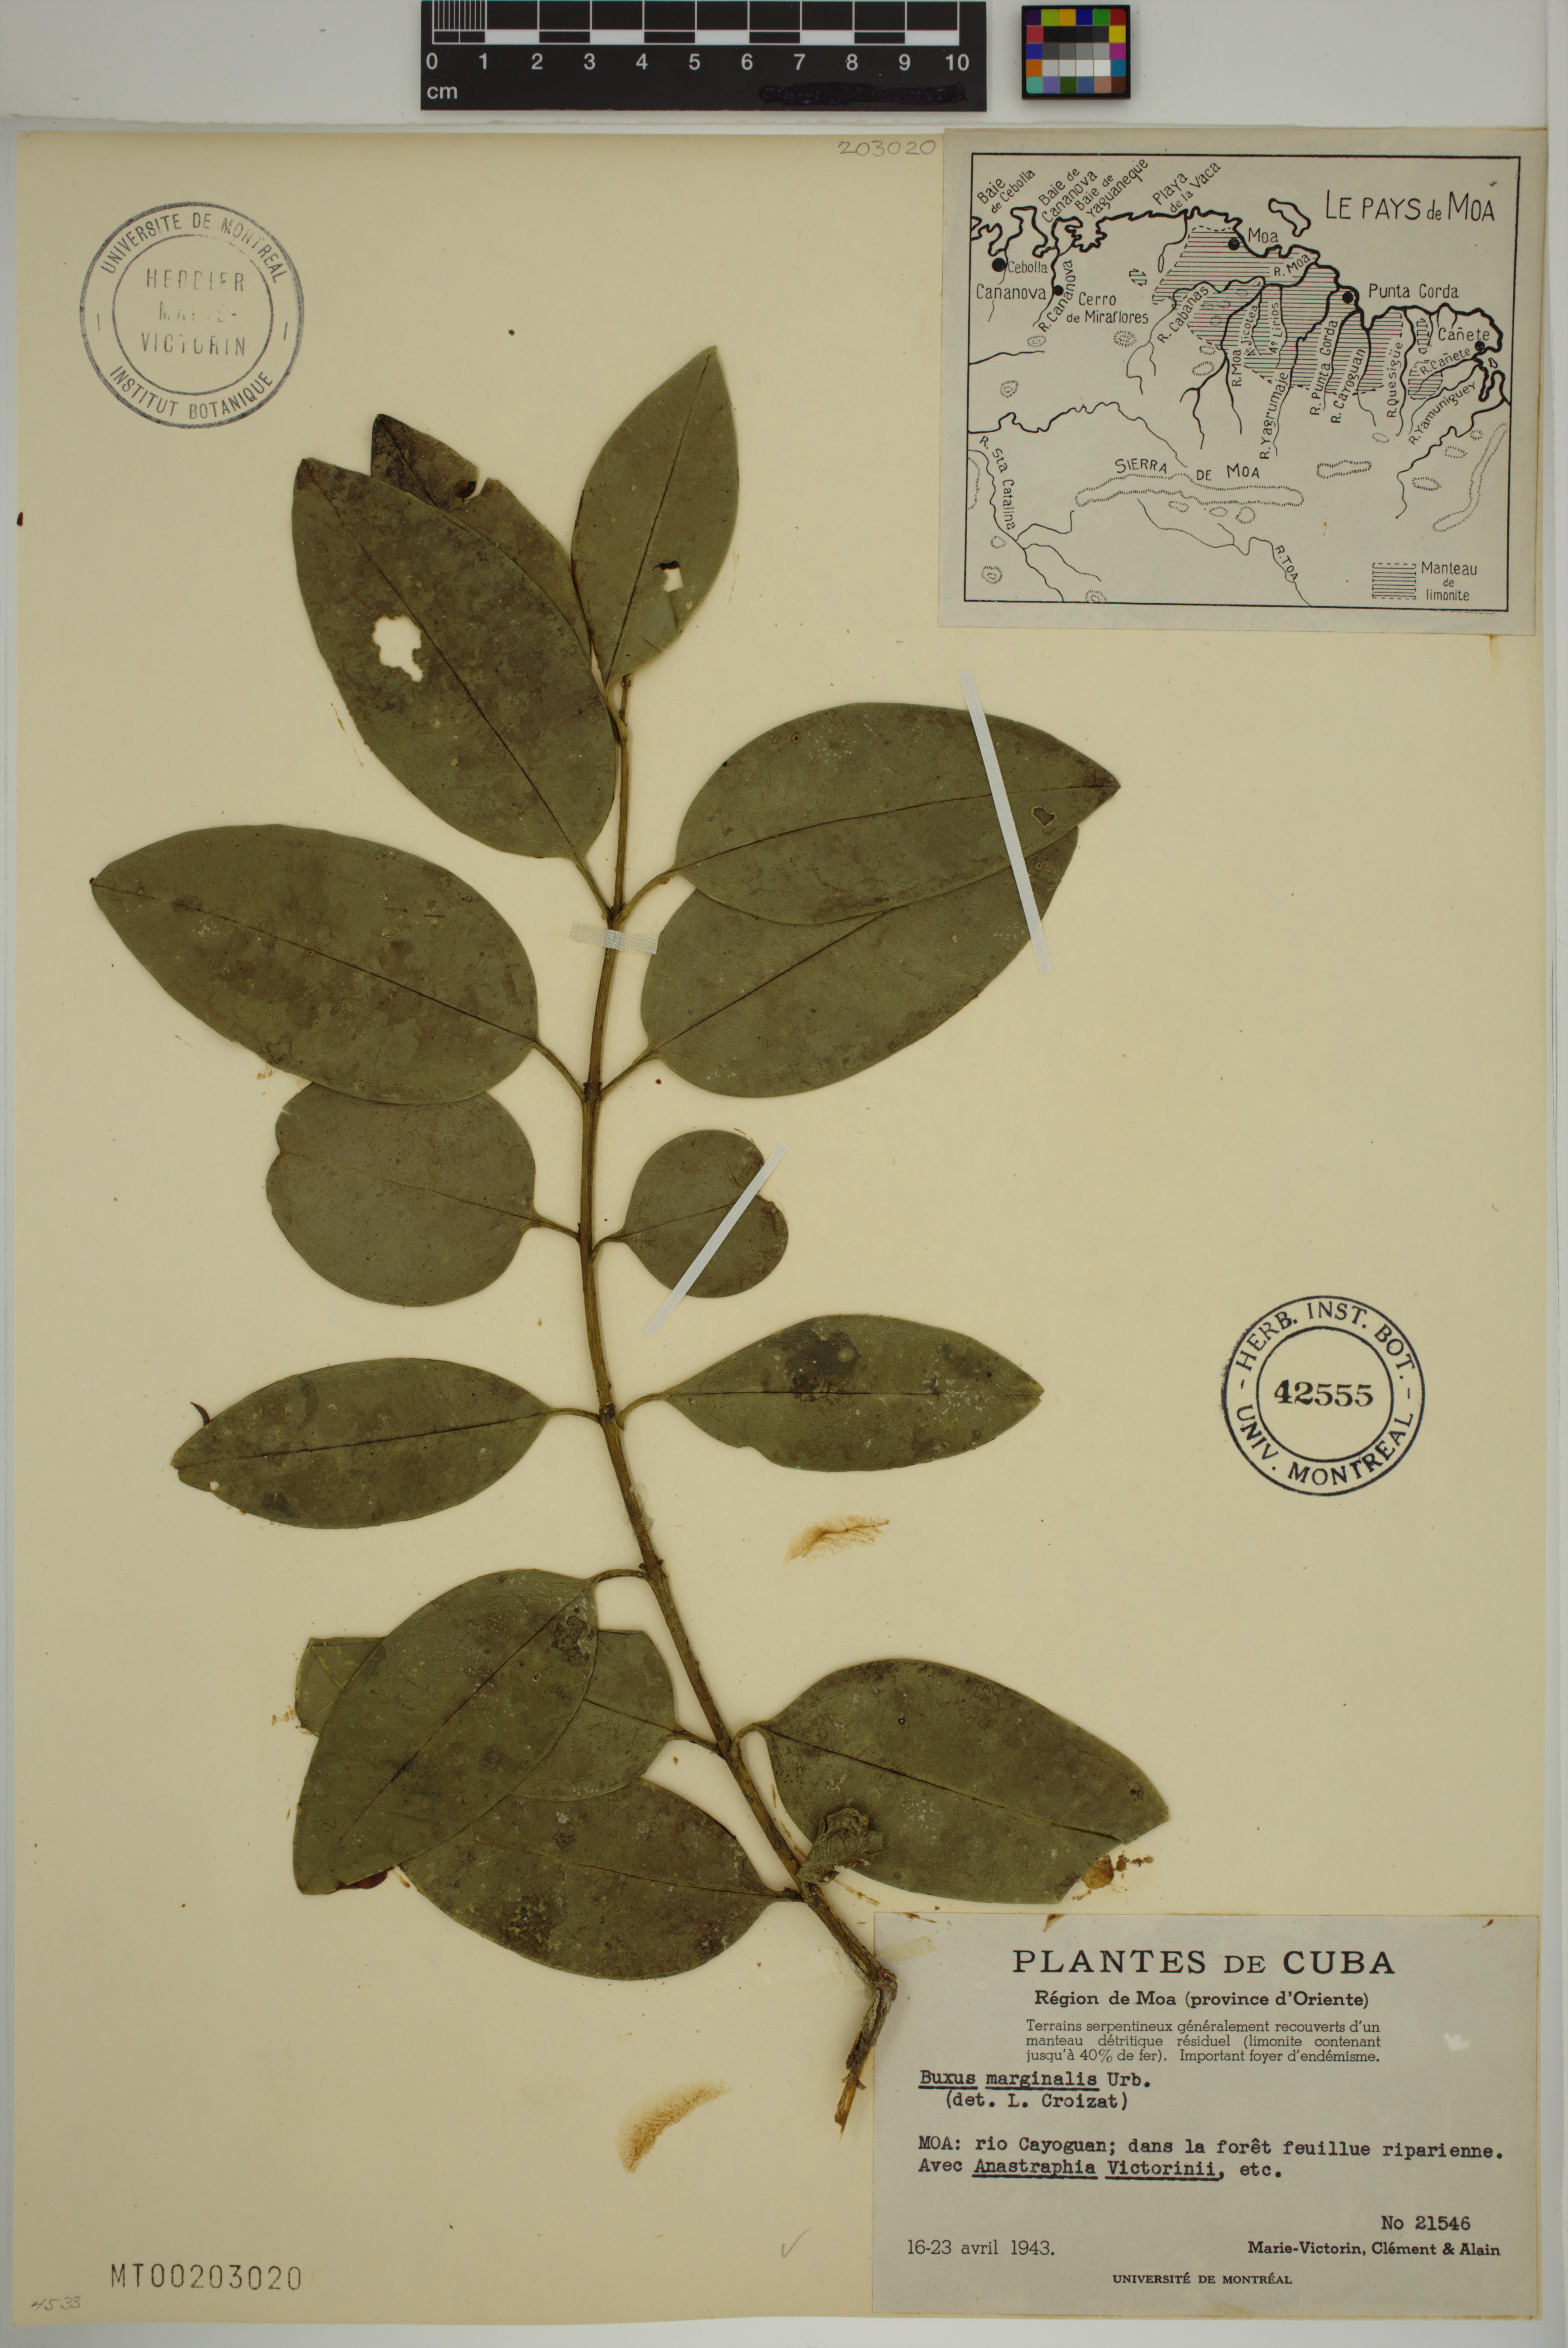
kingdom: Plantae
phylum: Tracheophyta
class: Magnoliopsida
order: Buxales
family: Buxaceae
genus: Buxus
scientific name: Buxus marginalis
